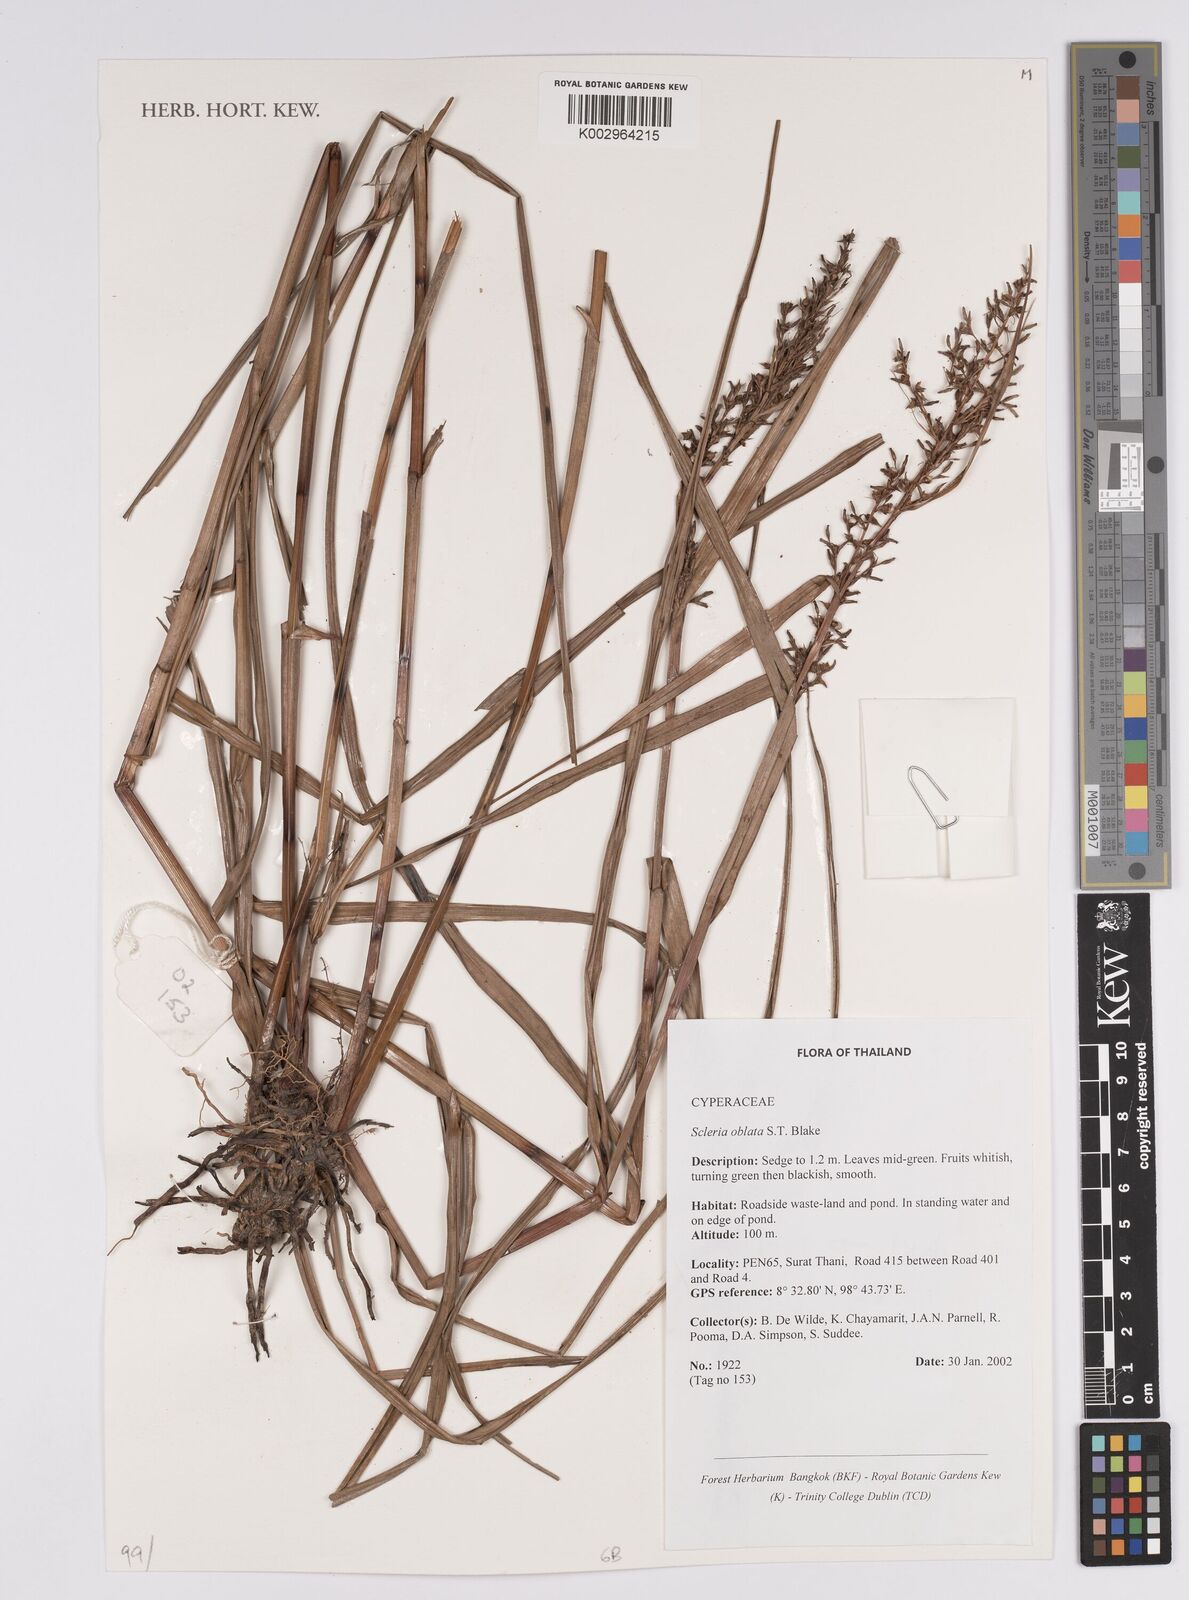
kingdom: Plantae
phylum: Tracheophyta
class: Liliopsida
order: Poales
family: Cyperaceae
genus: Scleria
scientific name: Scleria oblata
